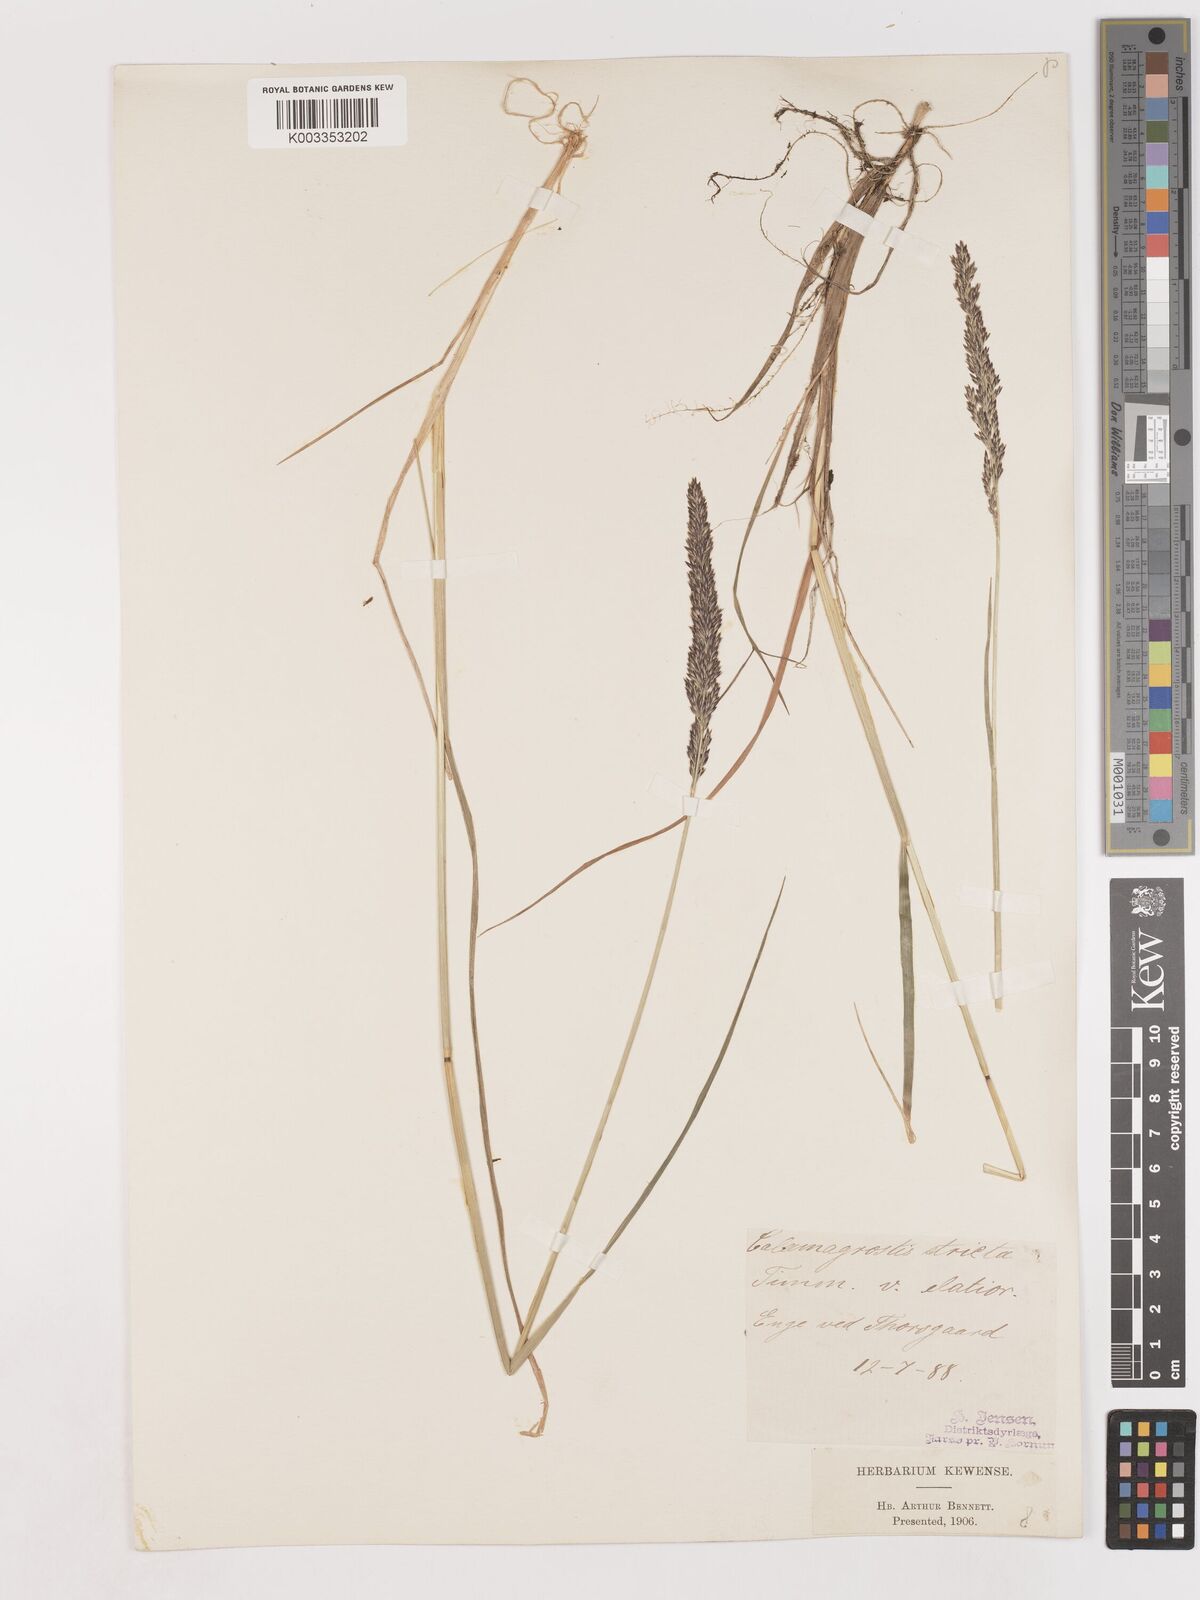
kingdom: Plantae
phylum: Tracheophyta
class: Liliopsida
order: Poales
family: Poaceae
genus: Cinnagrostis
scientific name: Cinnagrostis recta
